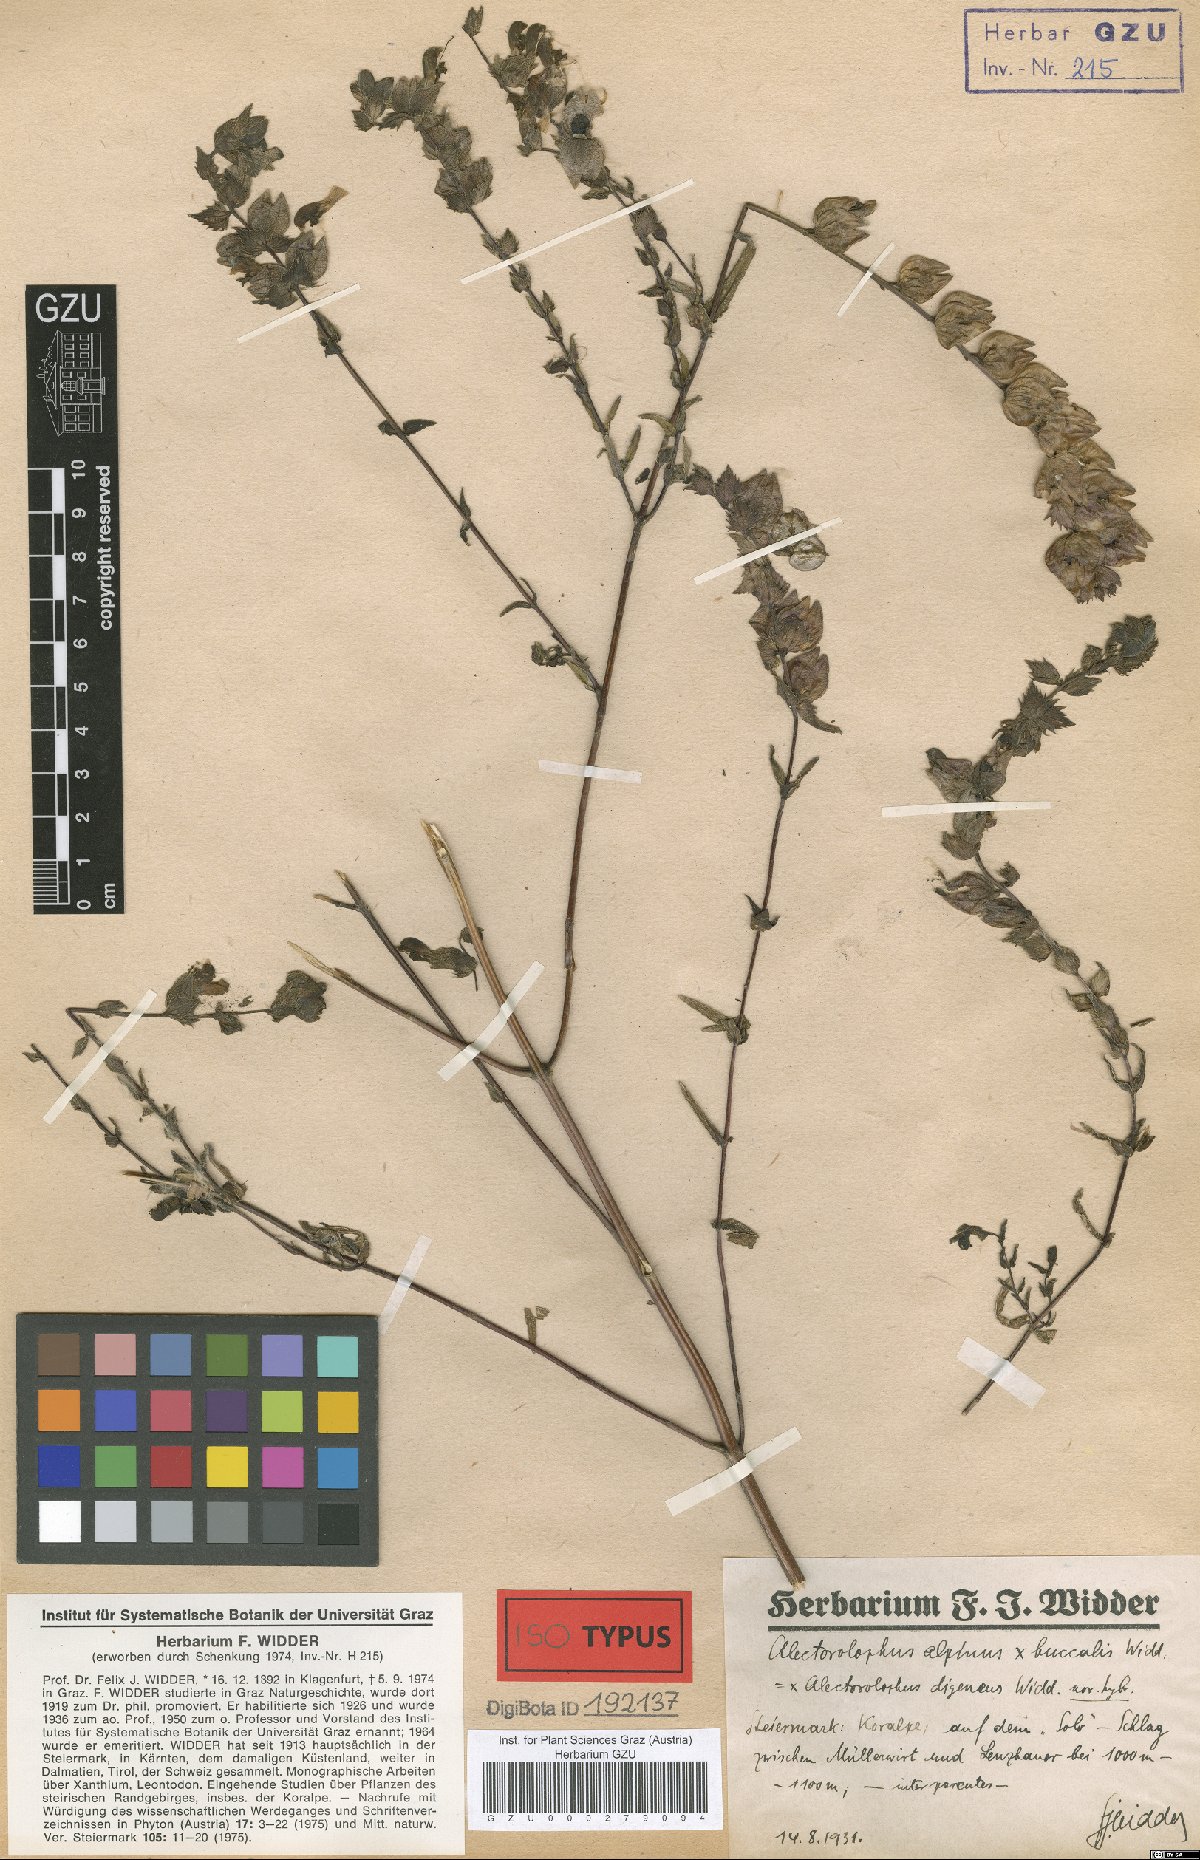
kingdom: Plantae
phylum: Tracheophyta
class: Magnoliopsida
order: Lamiales
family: Scrophulariaceae
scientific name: Scrophulariaceae
